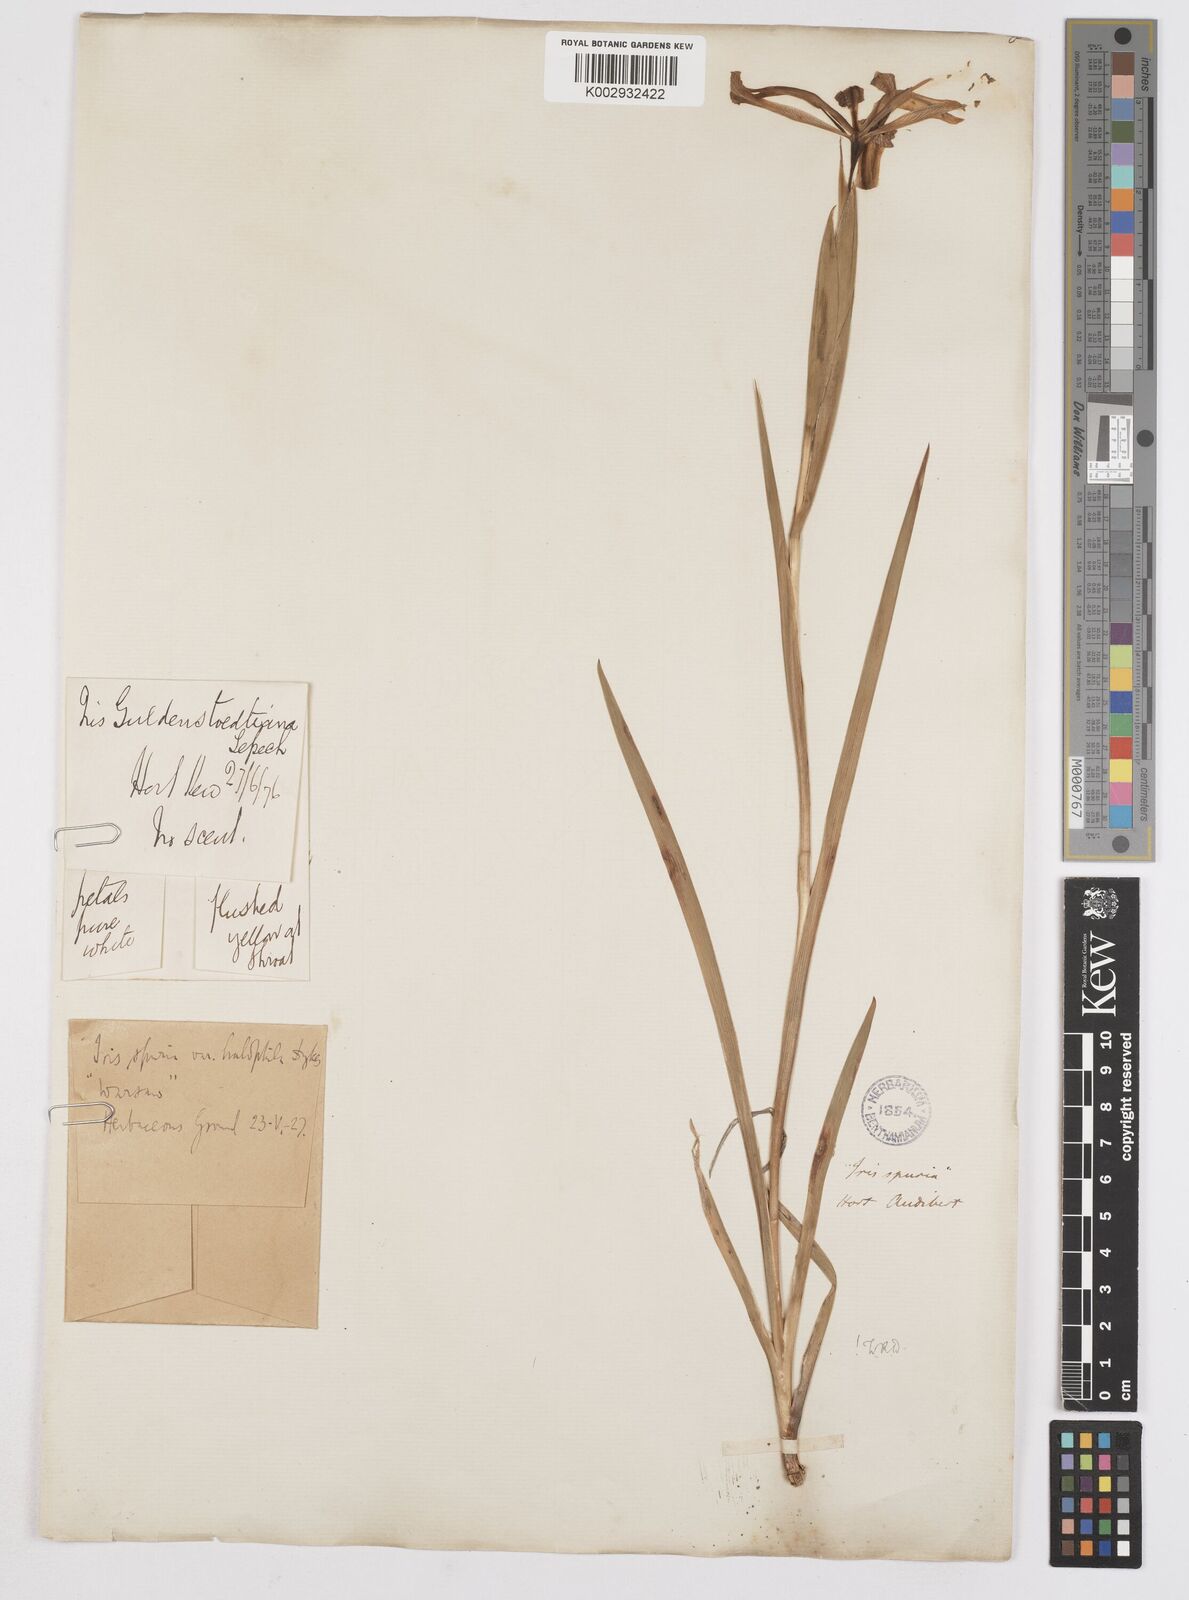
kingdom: Plantae
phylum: Tracheophyta
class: Liliopsida
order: Asparagales
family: Iridaceae
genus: Iris
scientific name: Iris spuria
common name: Blue iris
